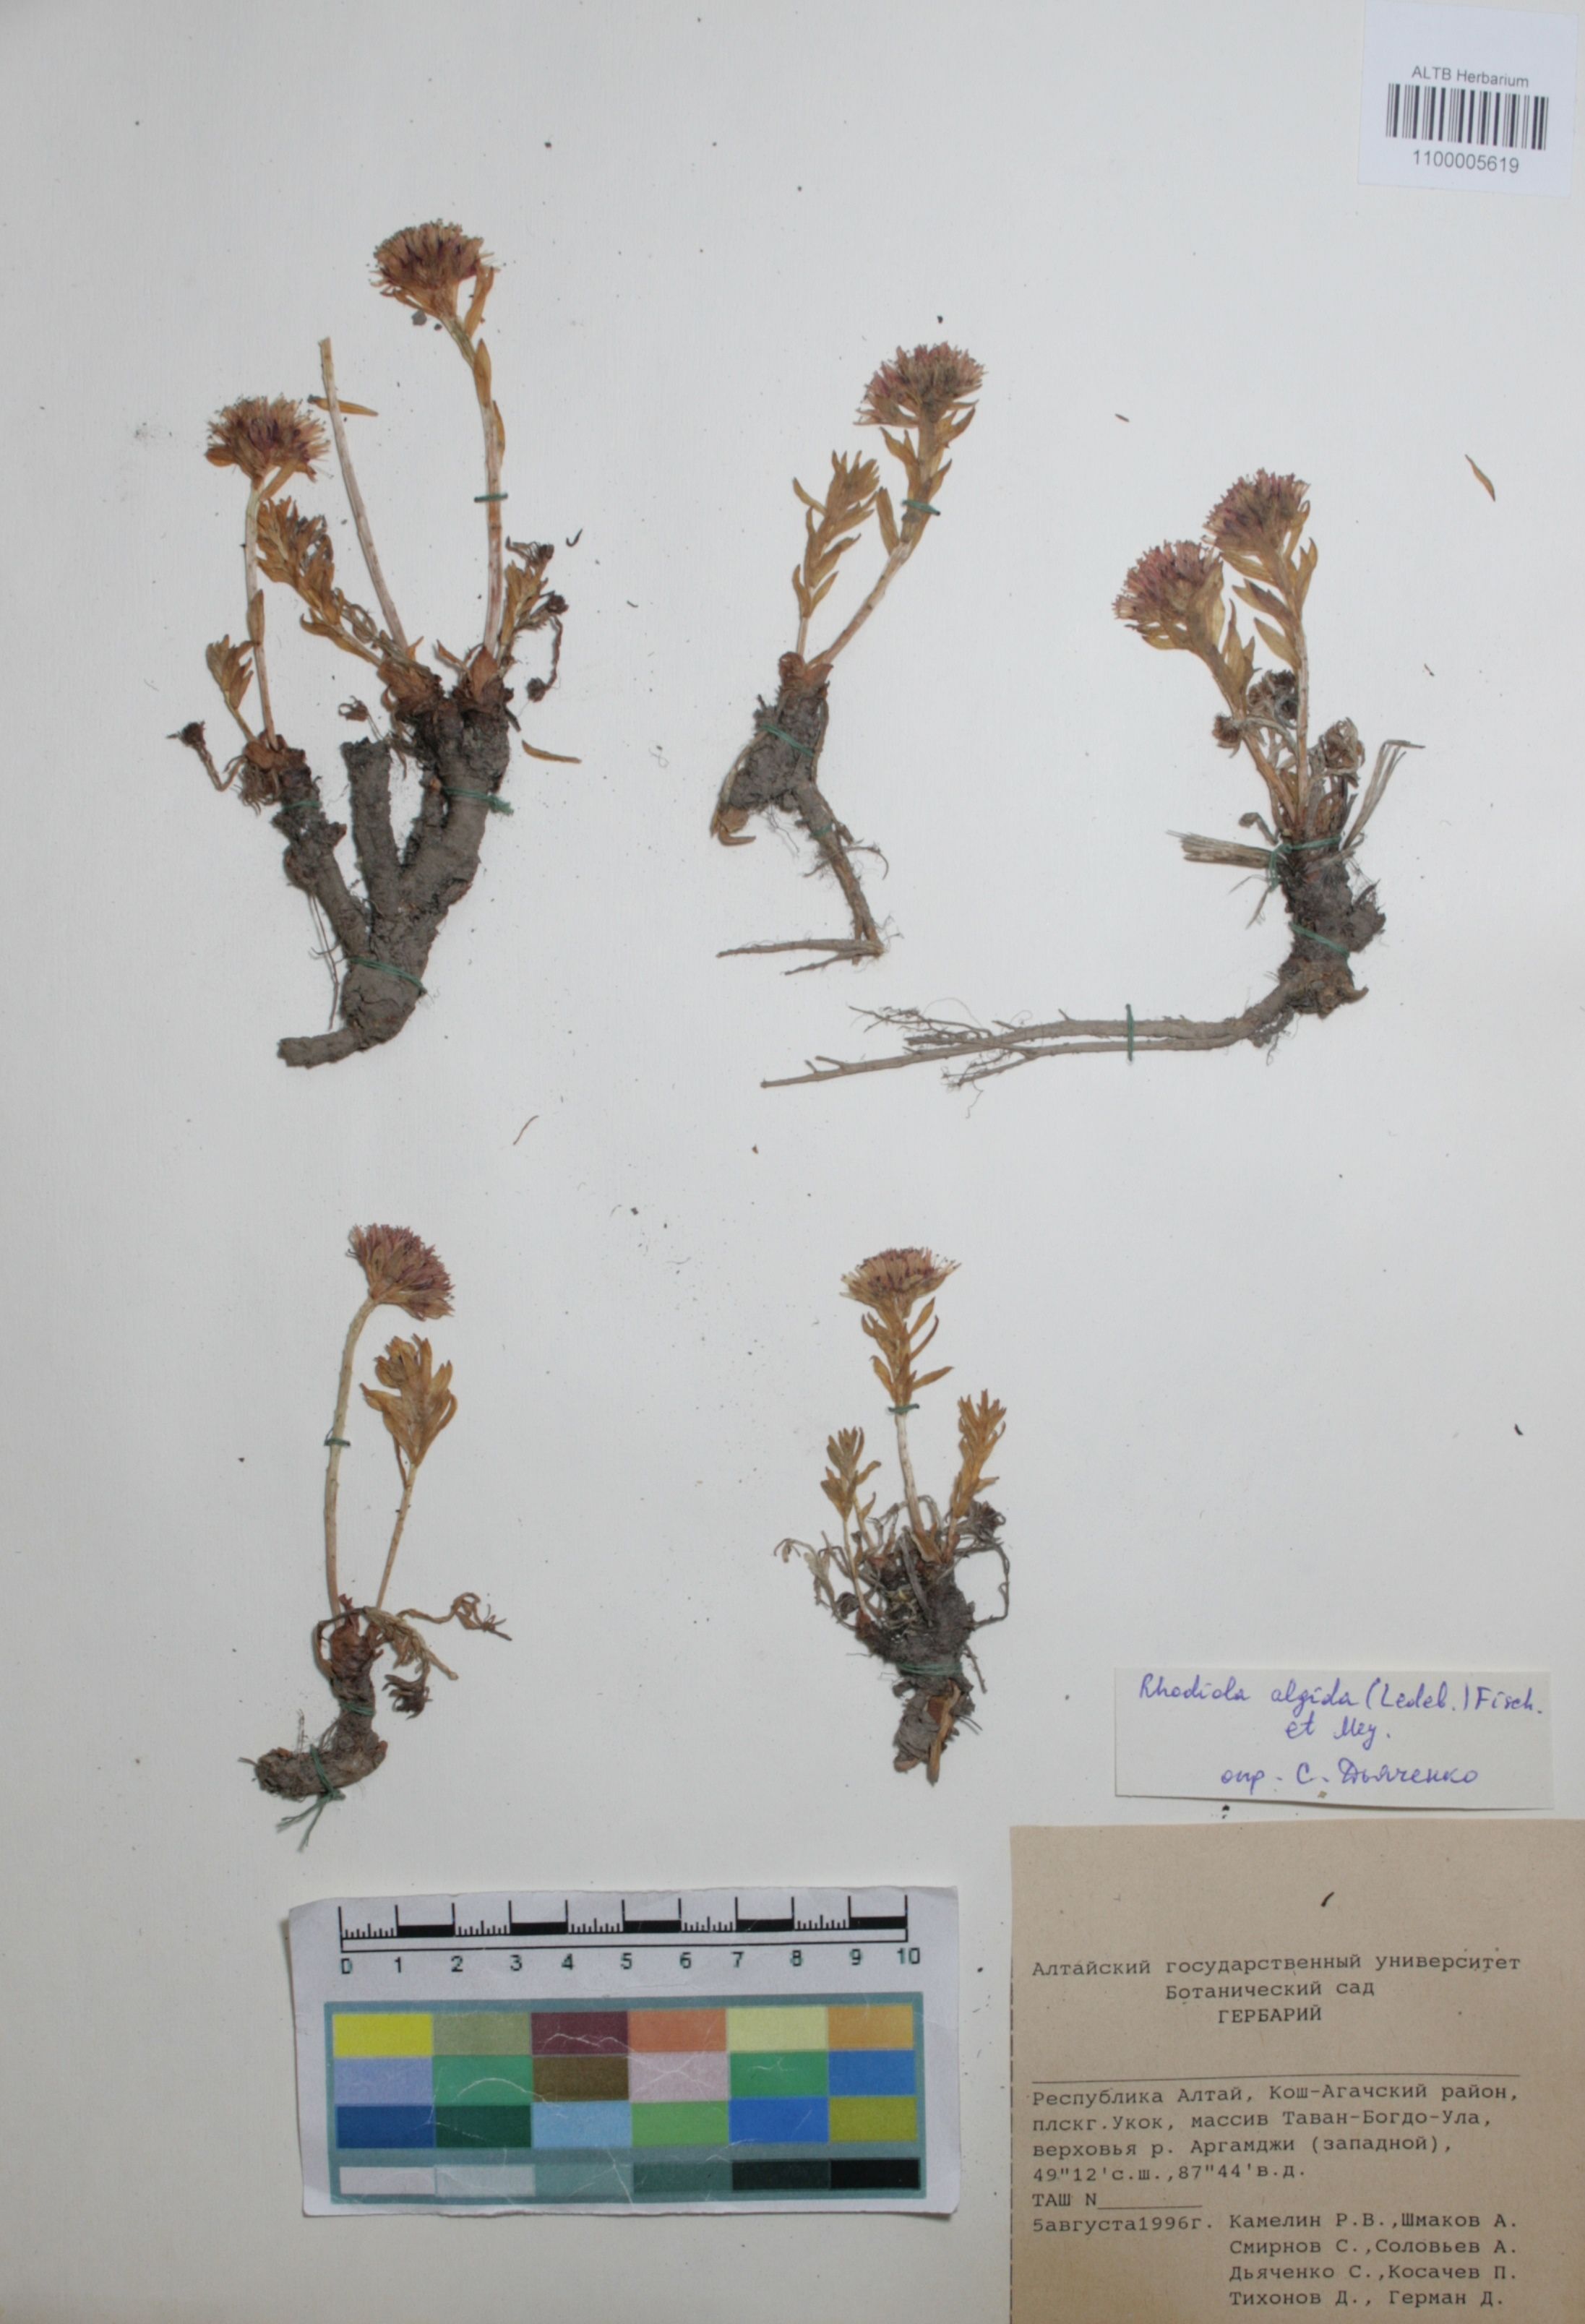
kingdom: Plantae
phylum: Tracheophyta
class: Magnoliopsida
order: Saxifragales
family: Crassulaceae
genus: Rhodiola
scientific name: Rhodiola algida
